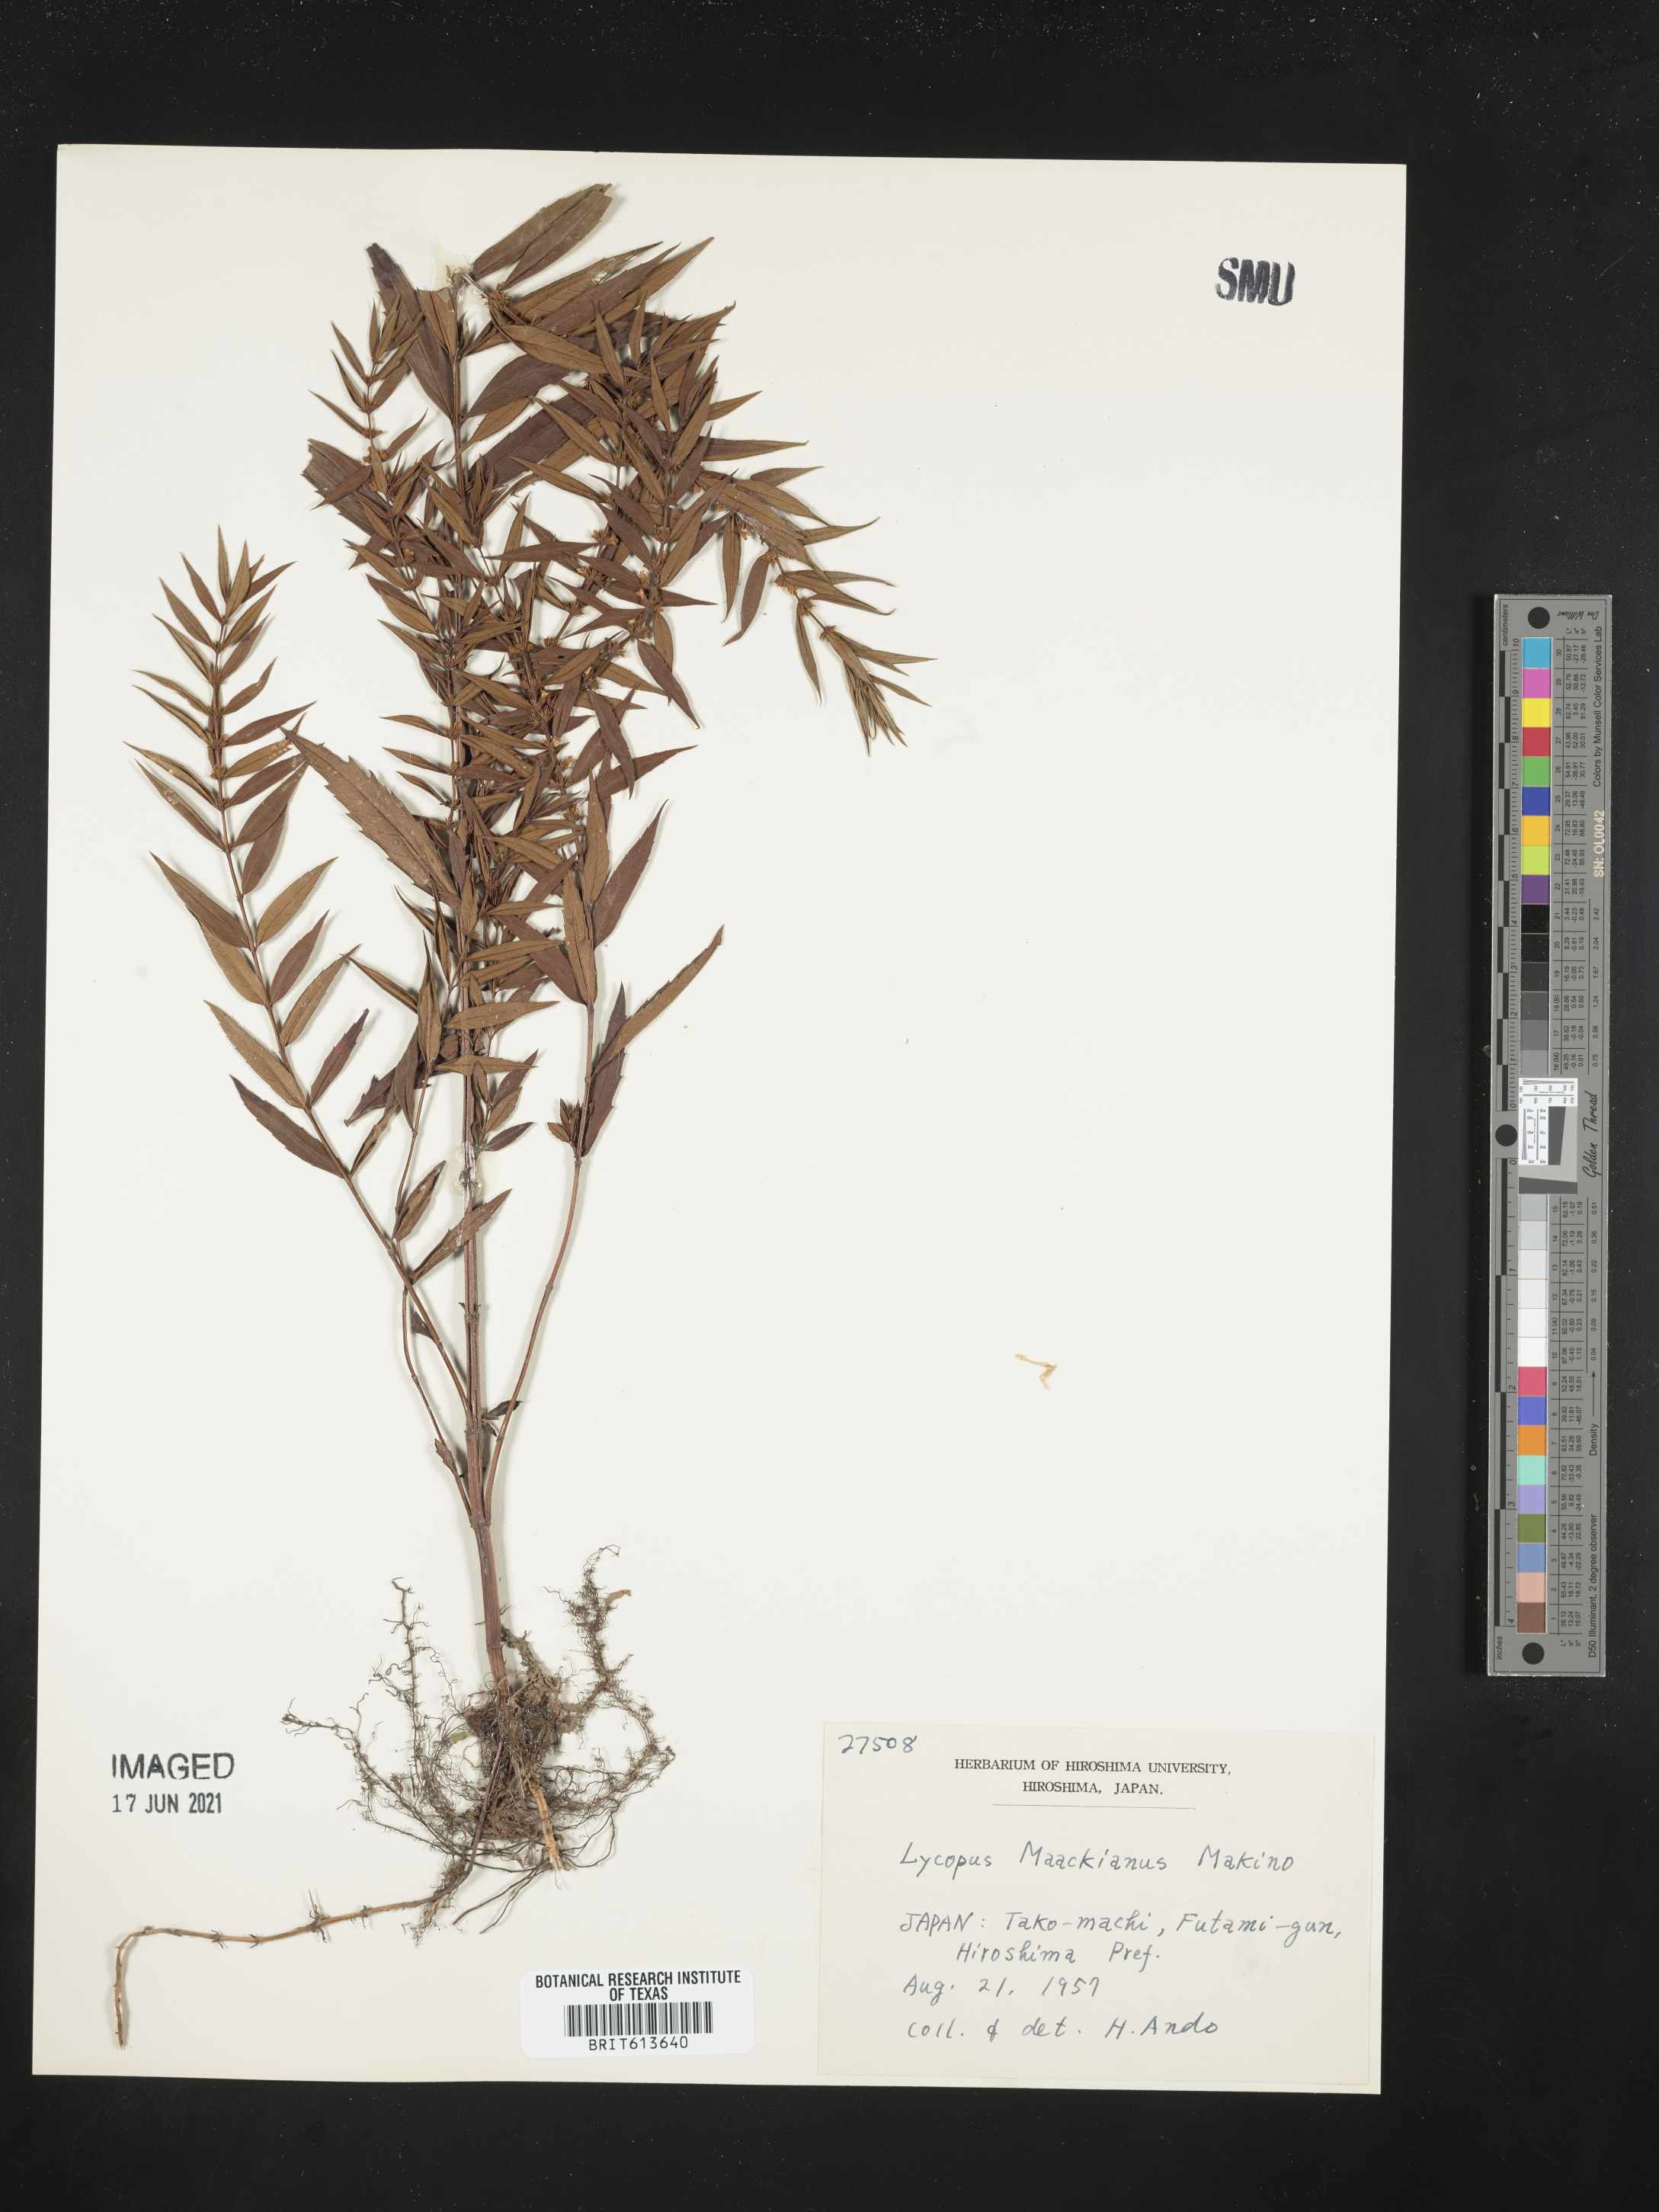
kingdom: Plantae
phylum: Tracheophyta
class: Magnoliopsida
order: Lamiales
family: Lamiaceae
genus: Lycopus
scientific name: Lycopus lucidus
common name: Shiny bugleweed
